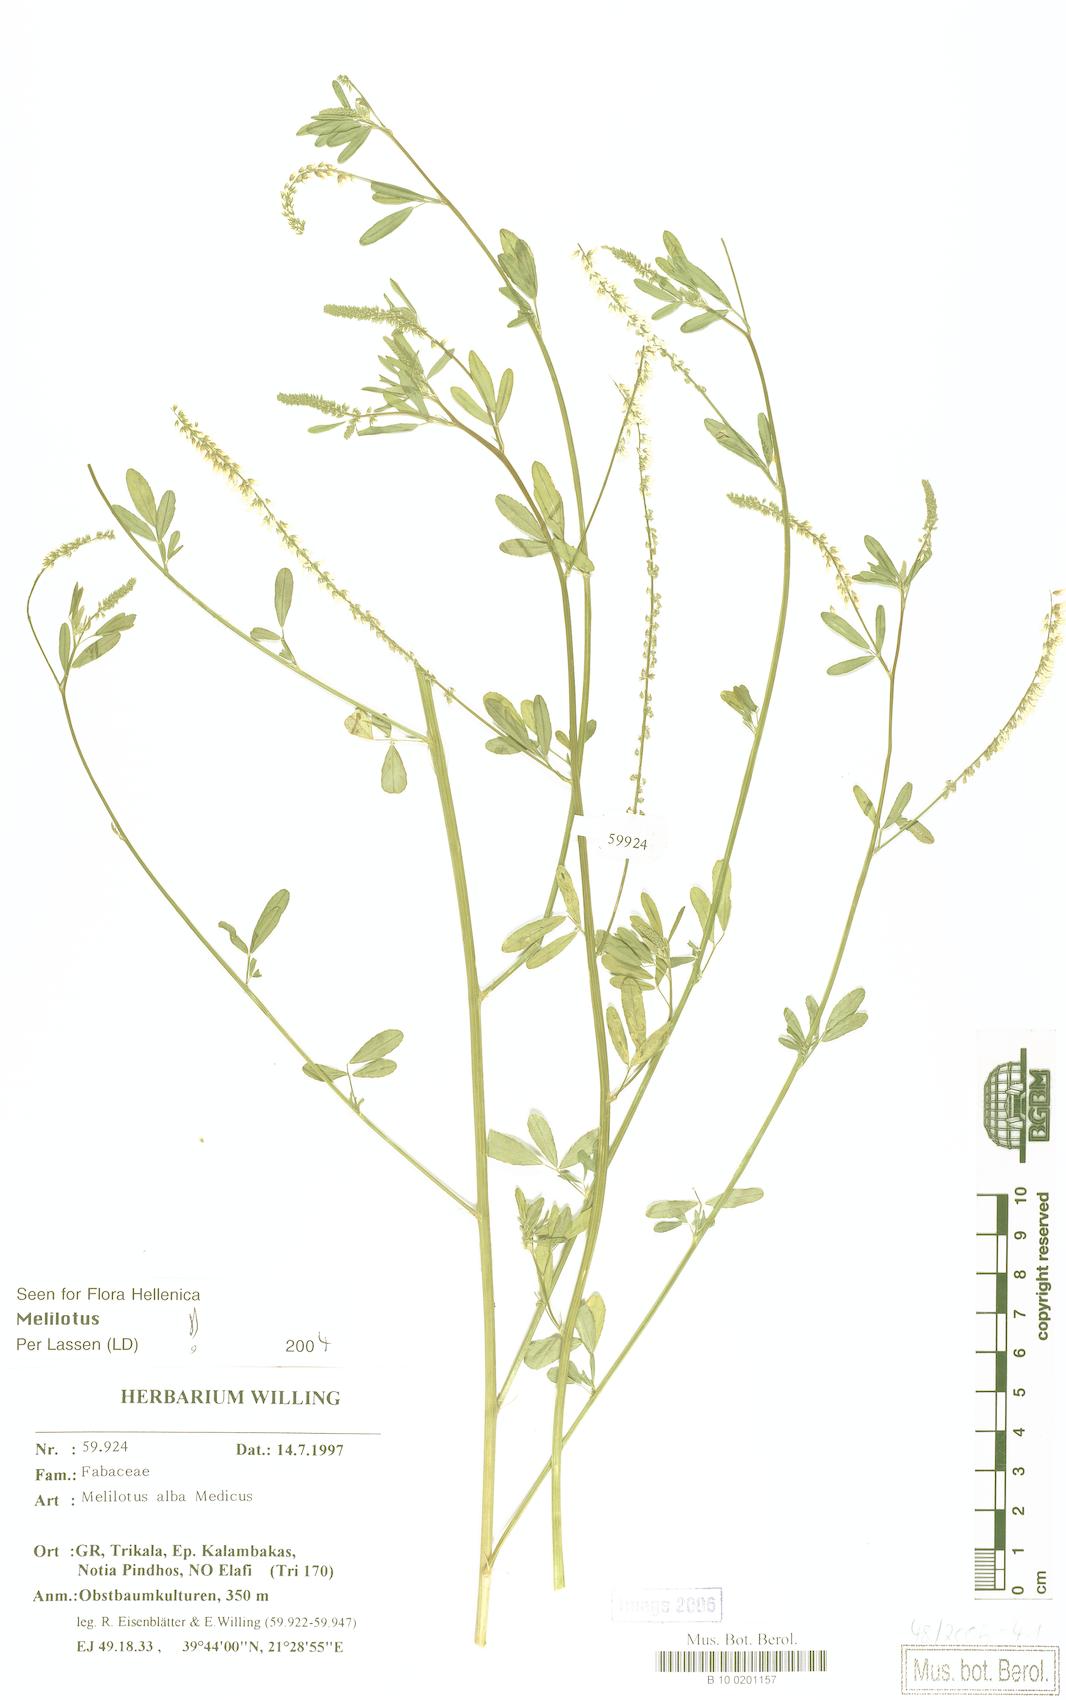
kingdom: Plantae
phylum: Tracheophyta
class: Magnoliopsida
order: Fabales
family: Fabaceae
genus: Melilotus
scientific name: Melilotus albus
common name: White melilot
